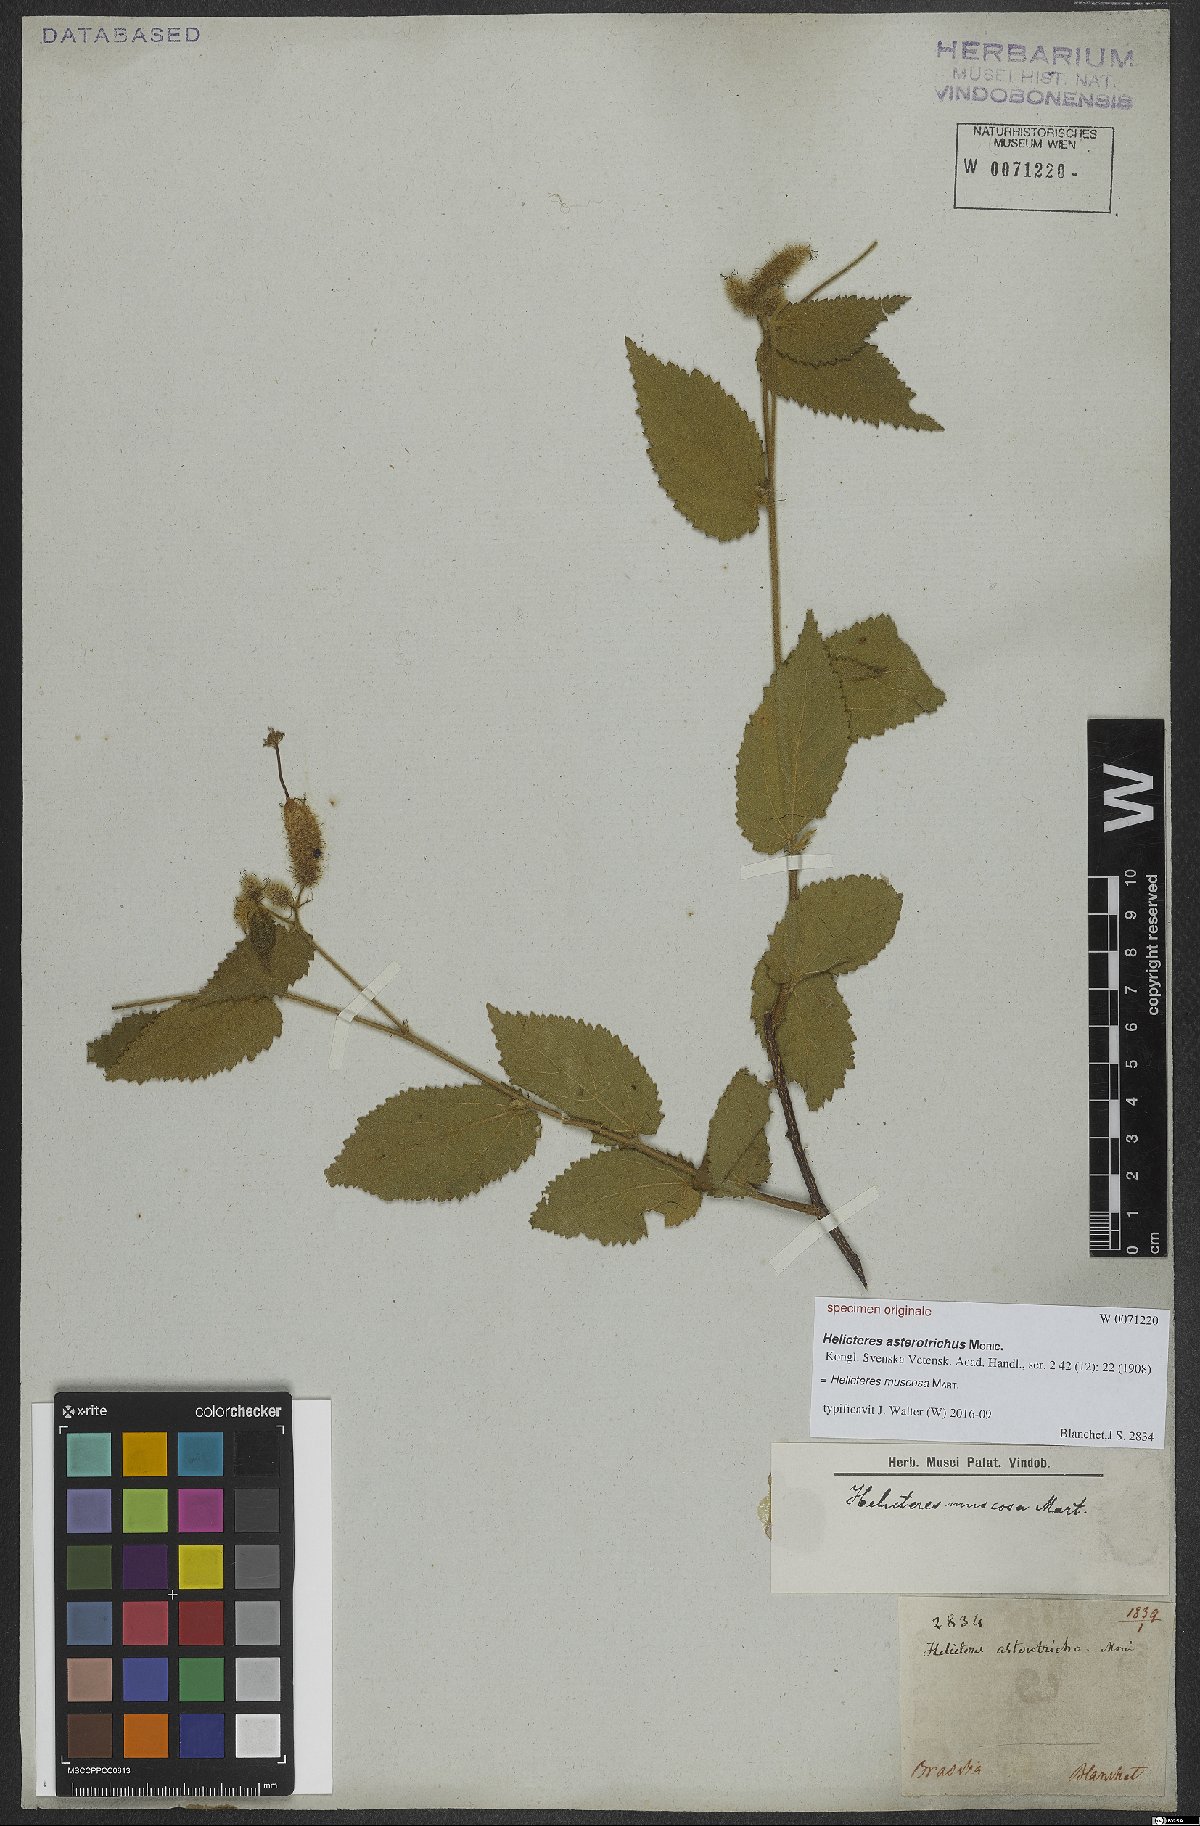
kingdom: Plantae
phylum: Tracheophyta
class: Magnoliopsida
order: Malvales
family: Malvaceae
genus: Helicteres
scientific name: Helicteres muscosa
